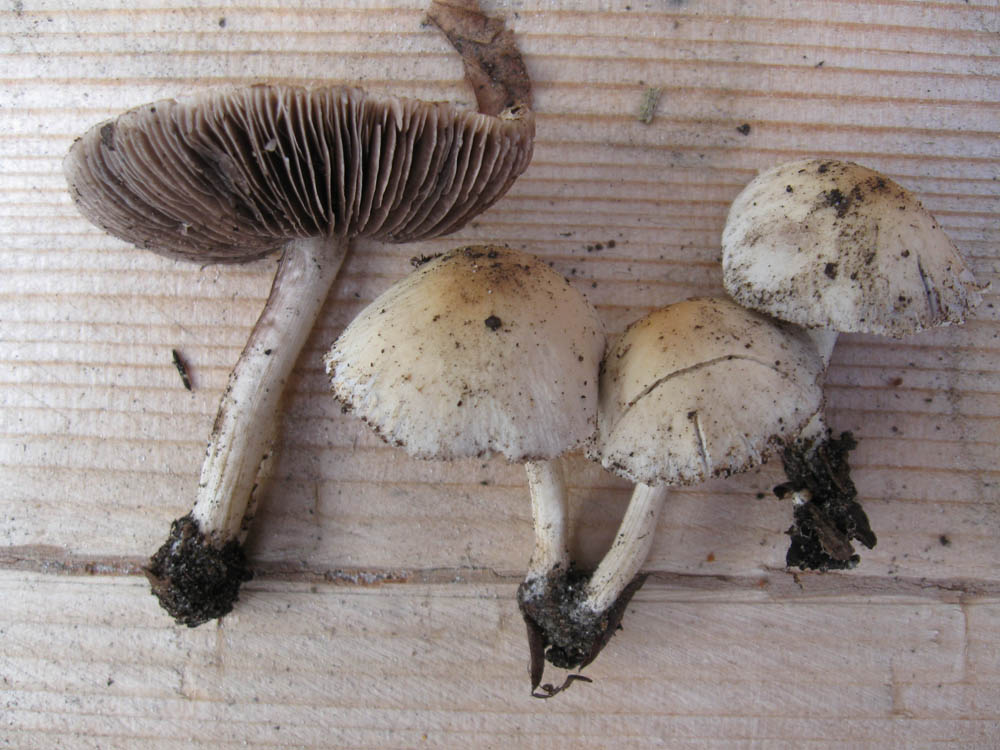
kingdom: Fungi
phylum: Basidiomycota
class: Agaricomycetes
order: Agaricales
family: Psathyrellaceae
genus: Candolleomyces
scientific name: Candolleomyces candolleanus
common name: Candolles mørkhat
